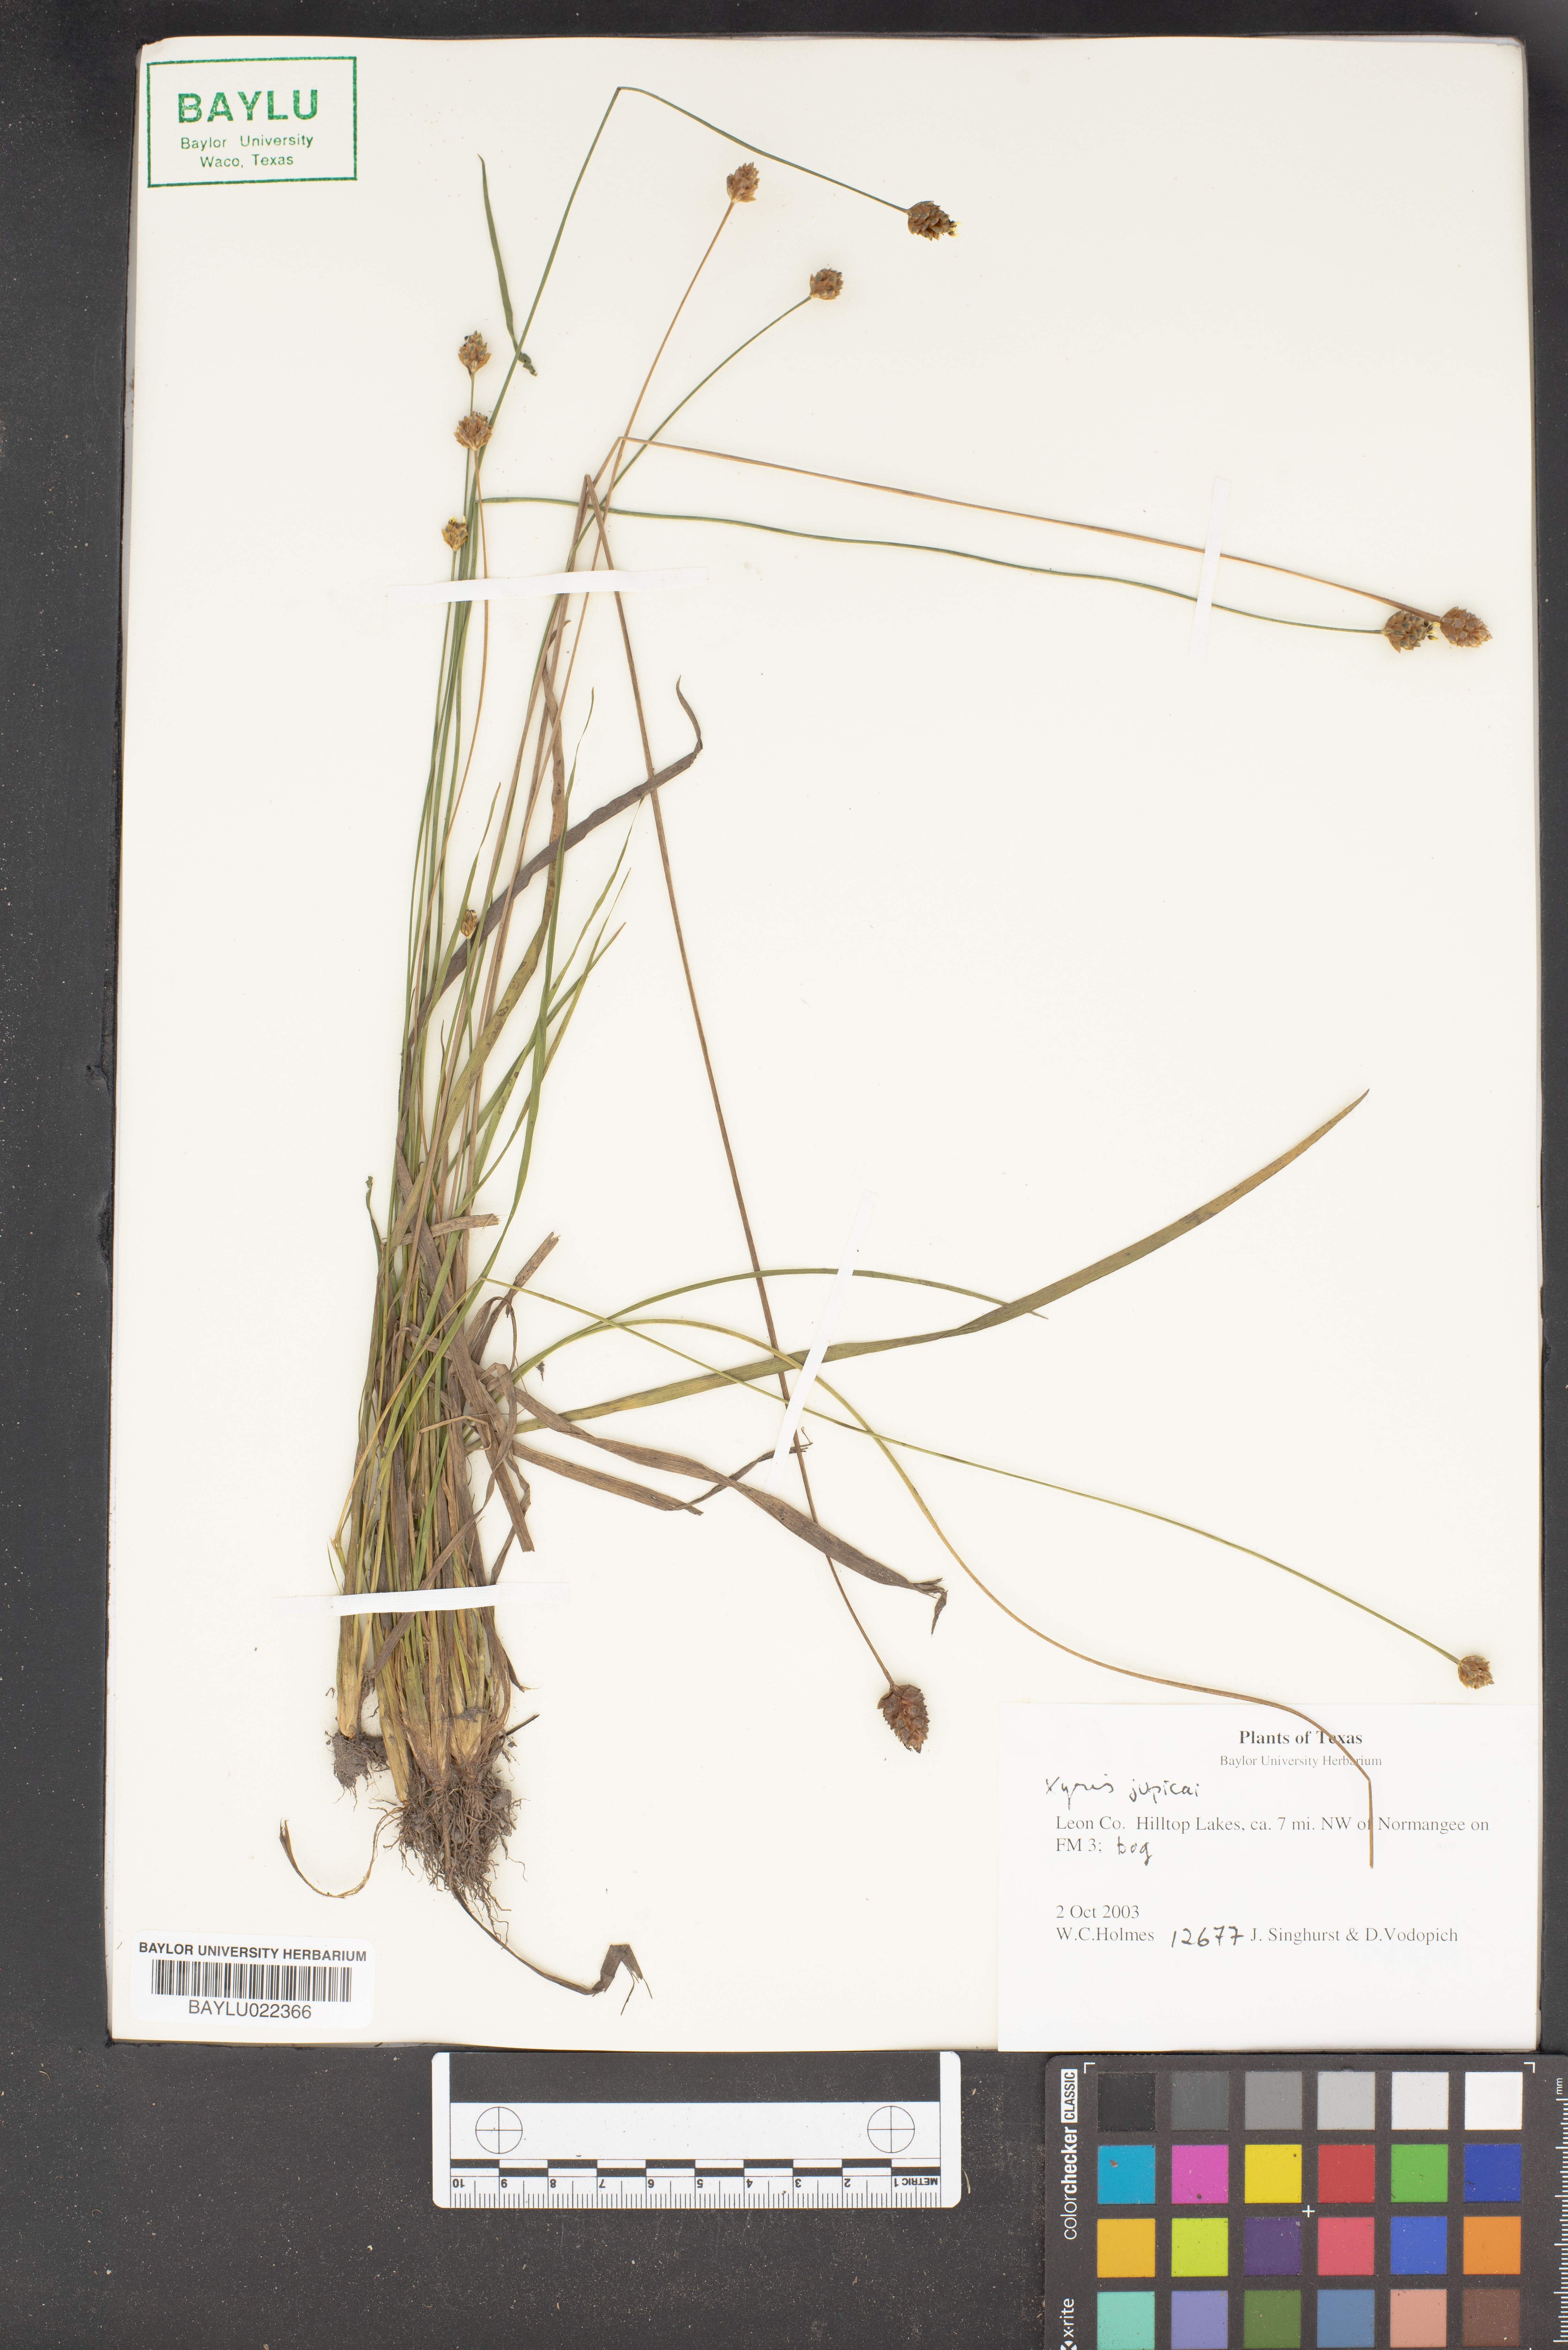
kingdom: Plantae
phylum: Tracheophyta
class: Liliopsida
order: Poales
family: Xyridaceae
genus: Xyris
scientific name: Xyris jupicai
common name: Richard's yelloweyed grass
